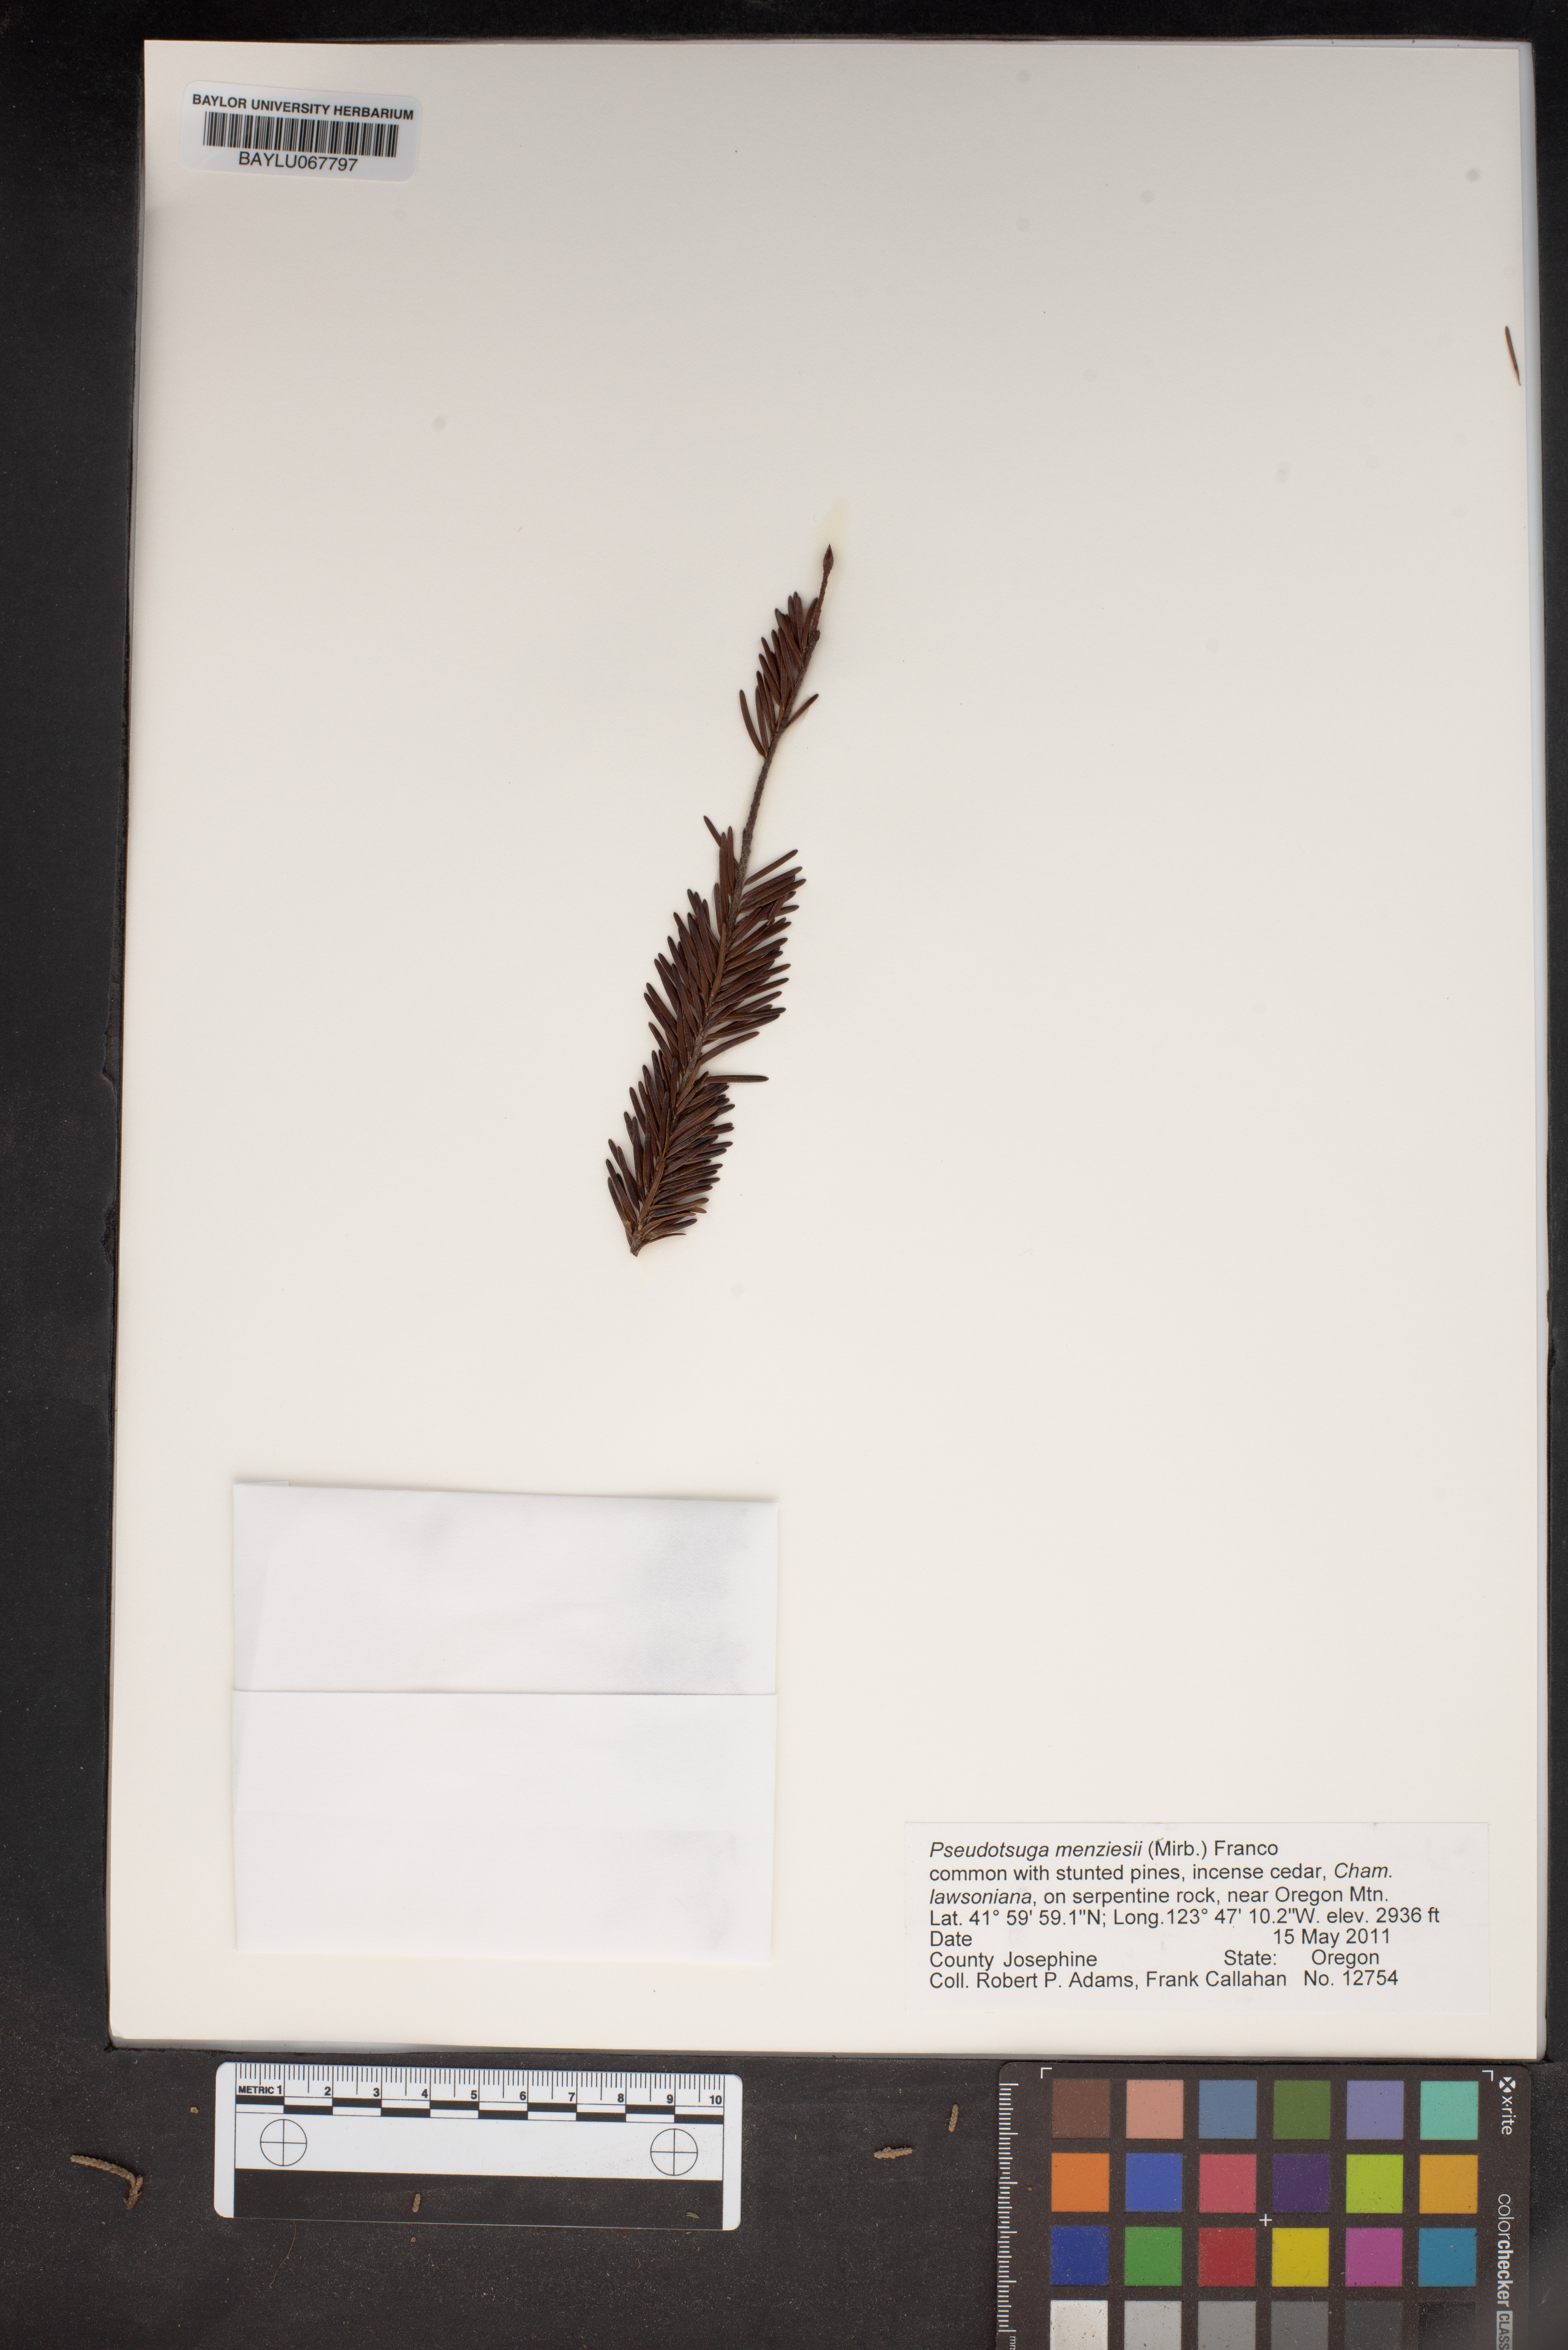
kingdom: Plantae
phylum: Tracheophyta
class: Pinopsida
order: Pinales
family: Pinaceae
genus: Pseudotsuga
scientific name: Pseudotsuga menziesii
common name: Douglas fir
